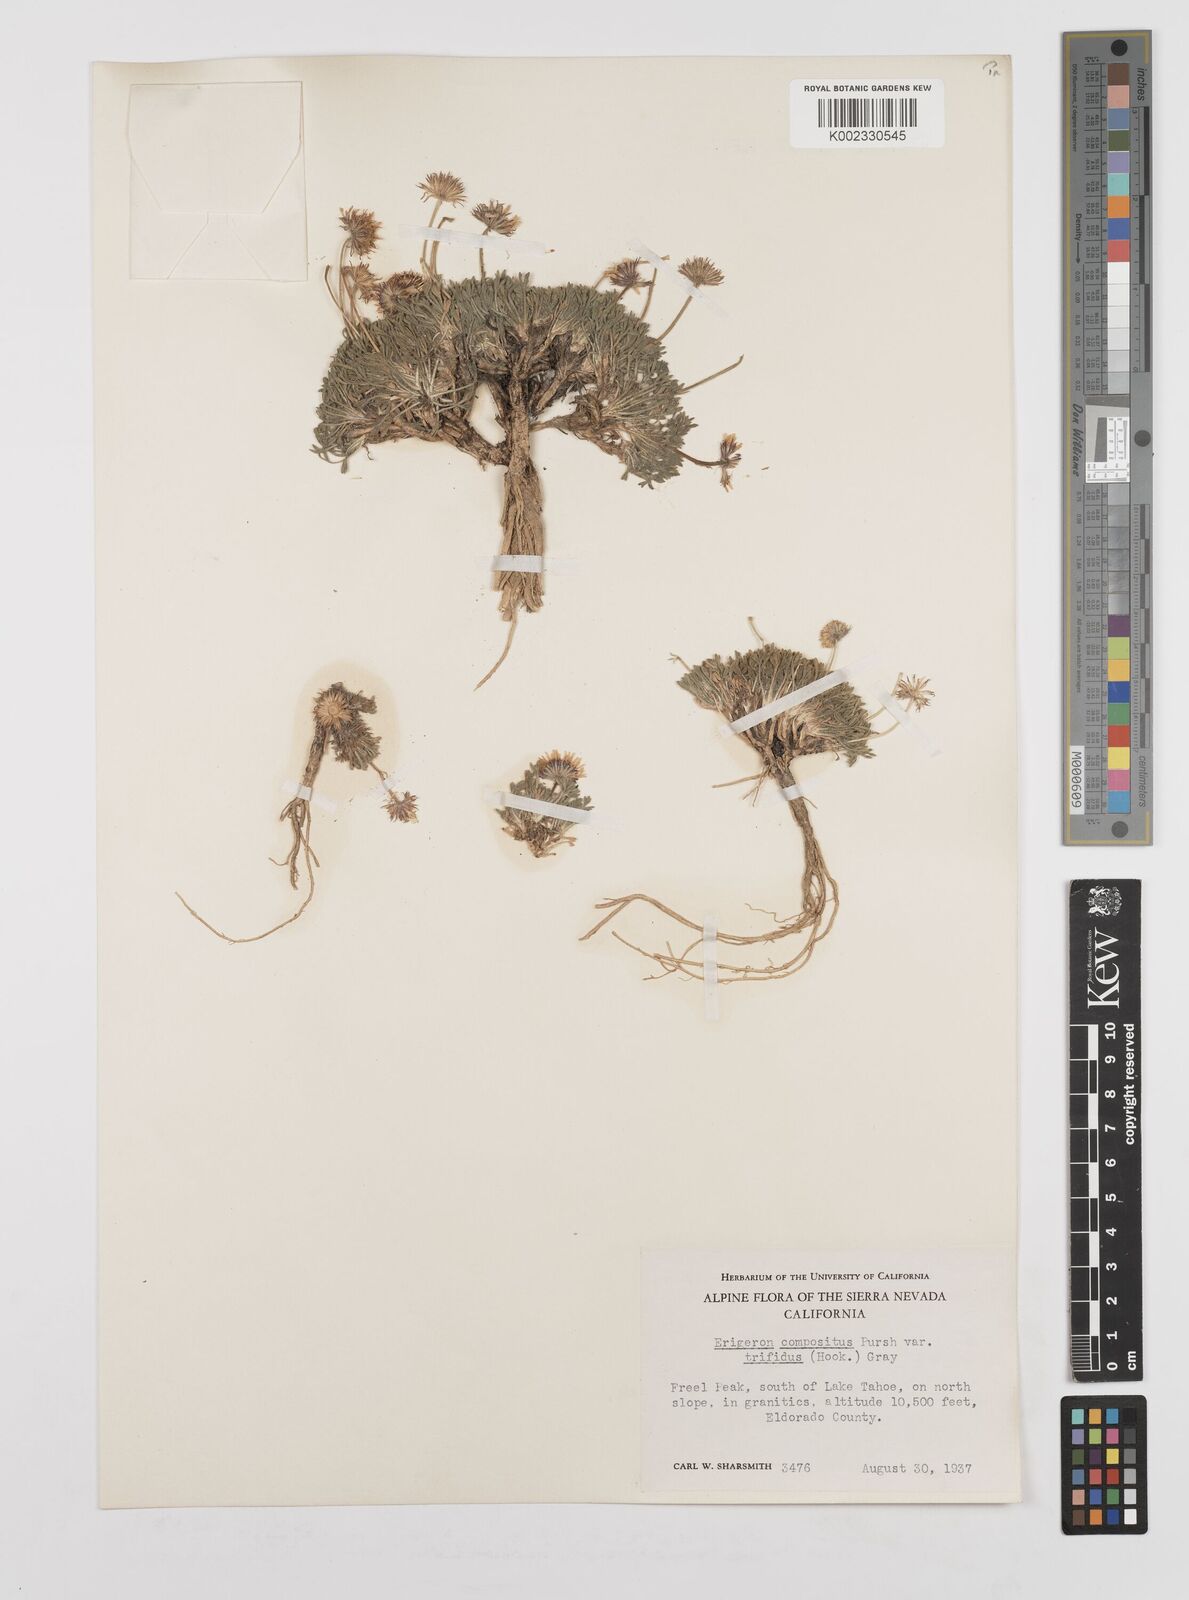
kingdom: Plantae
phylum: Tracheophyta
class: Magnoliopsida
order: Asterales
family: Asteraceae
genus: Erigeron
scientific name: Erigeron trifidus
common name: Alberta fleabane
